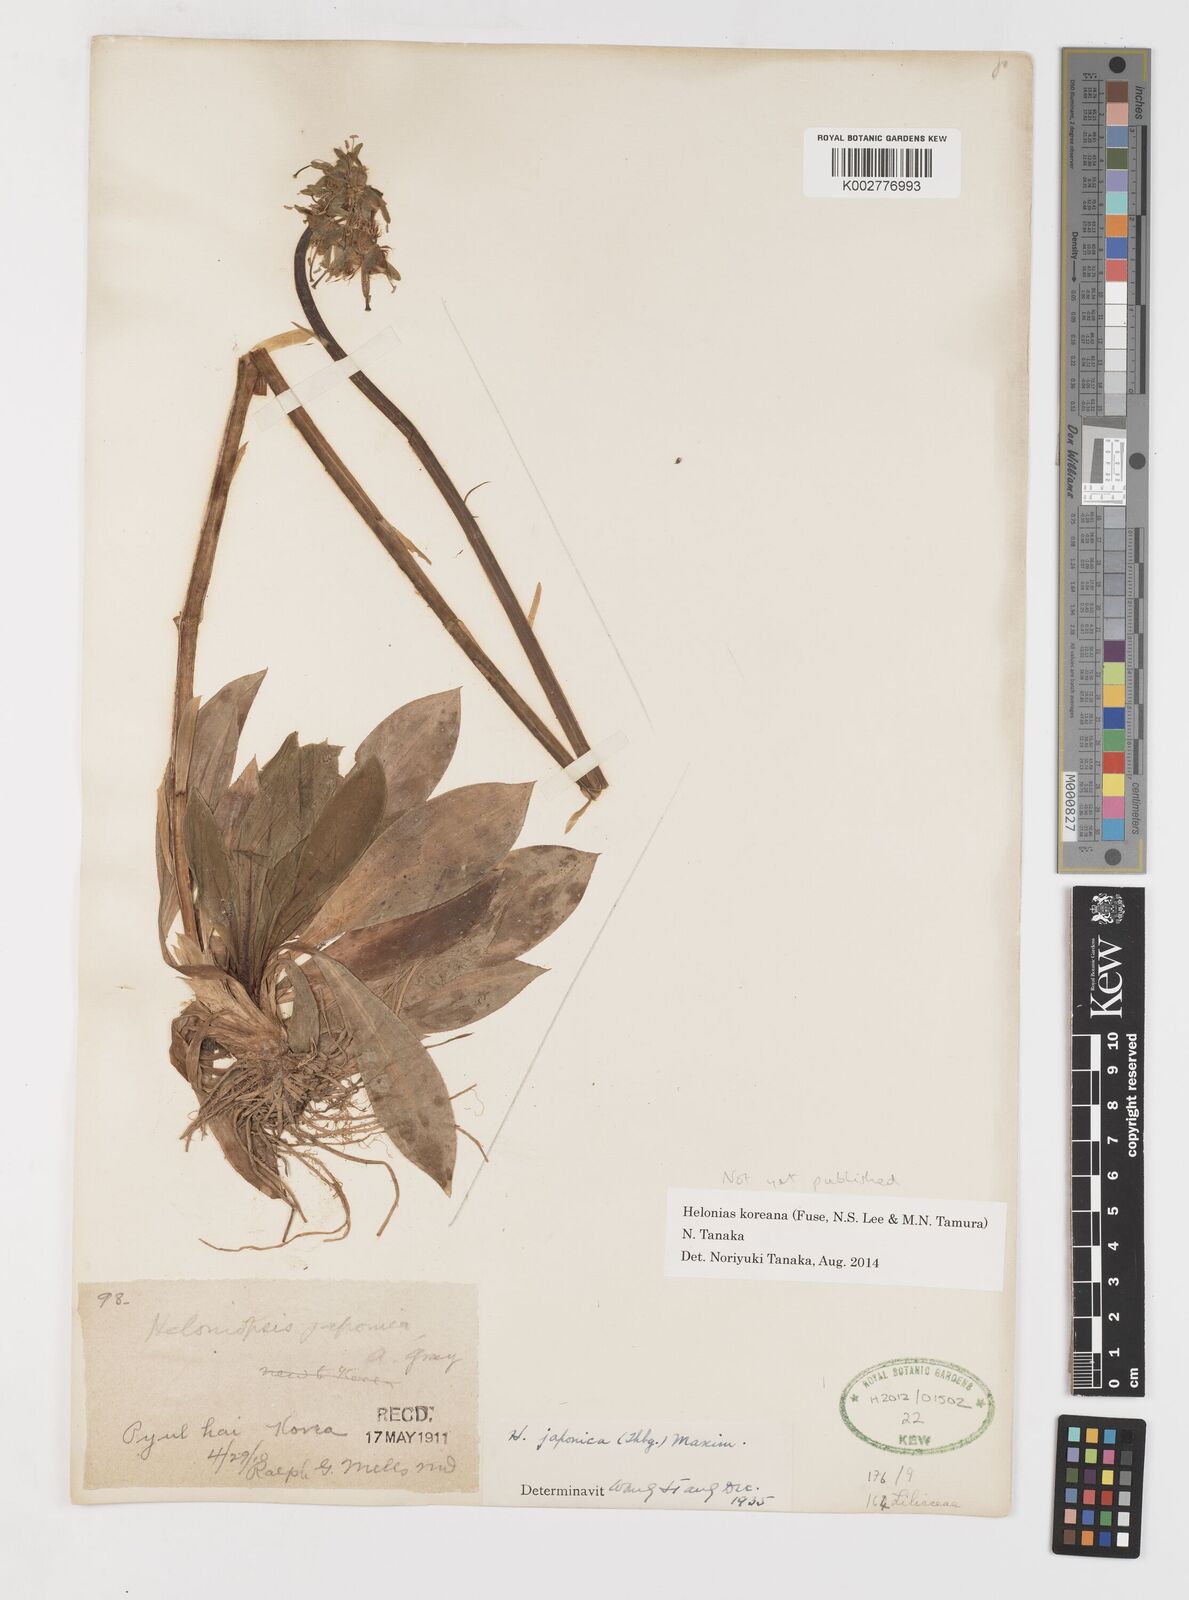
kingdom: Plantae
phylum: Tracheophyta
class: Liliopsida
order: Liliales
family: Melanthiaceae
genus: Helonias
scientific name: Helonias orientalis
